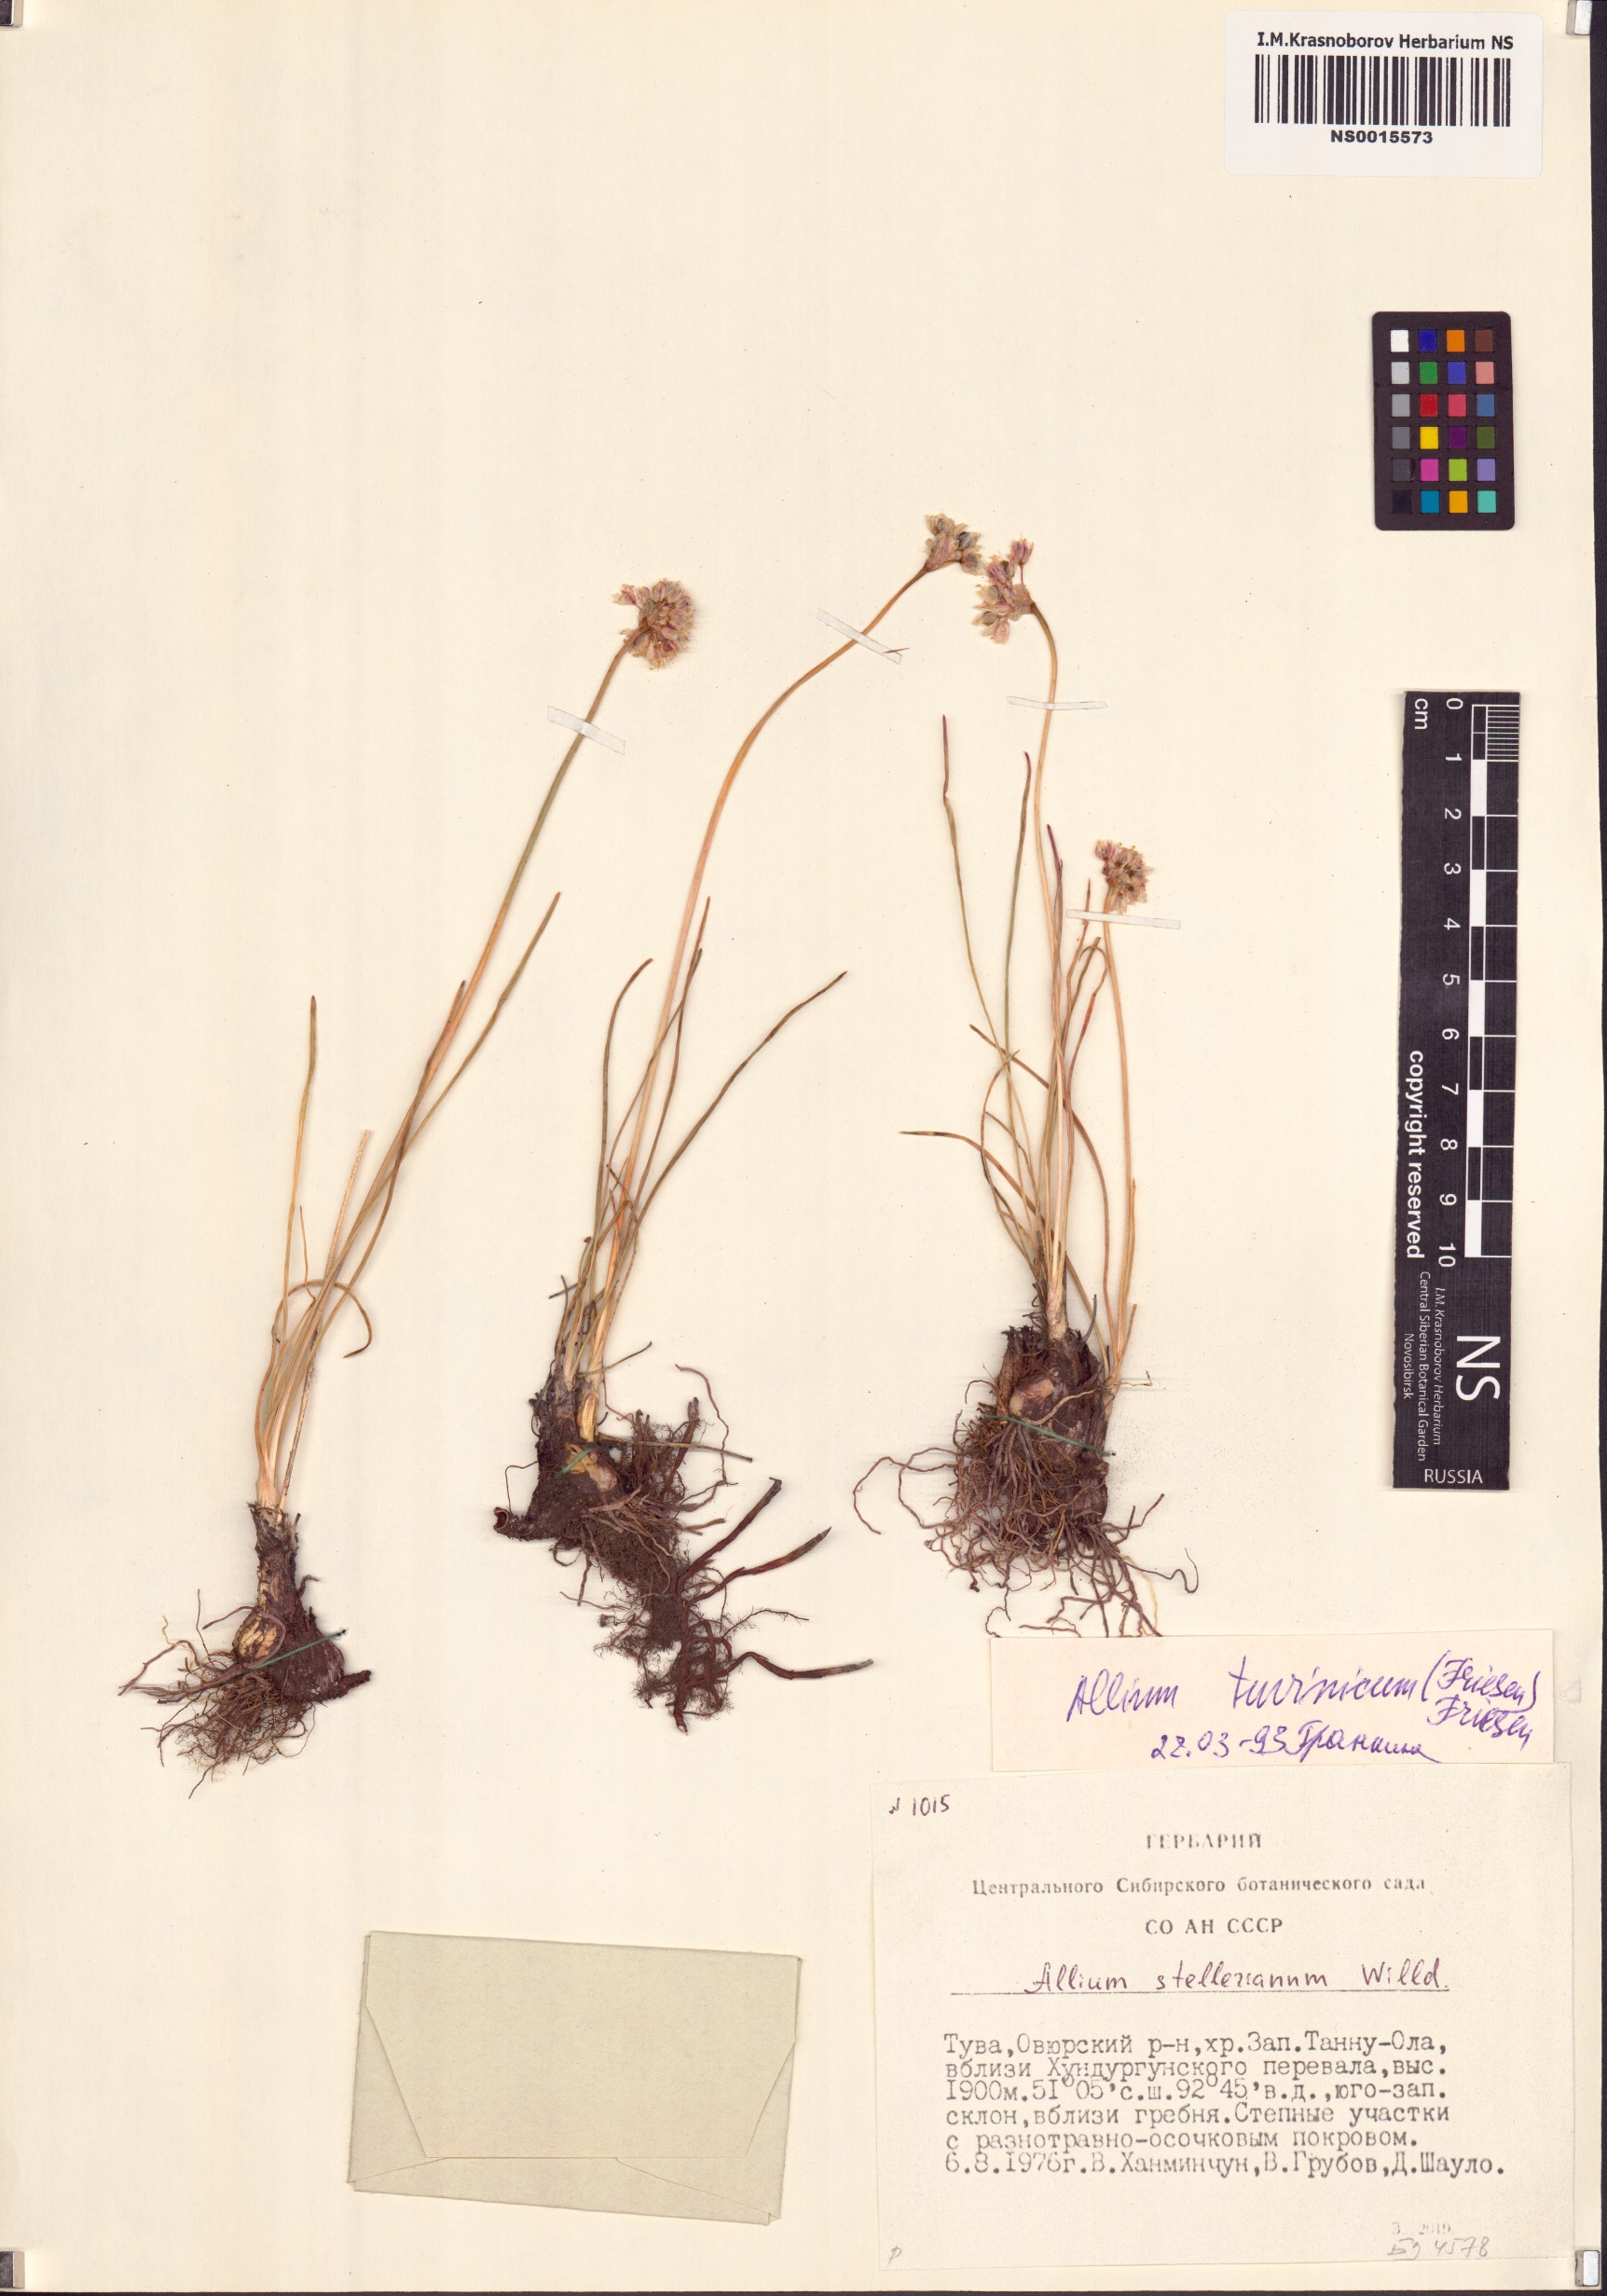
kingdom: Plantae
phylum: Tracheophyta
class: Liliopsida
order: Asparagales
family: Amaryllidaceae
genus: Allium
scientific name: Allium tuvinicum
